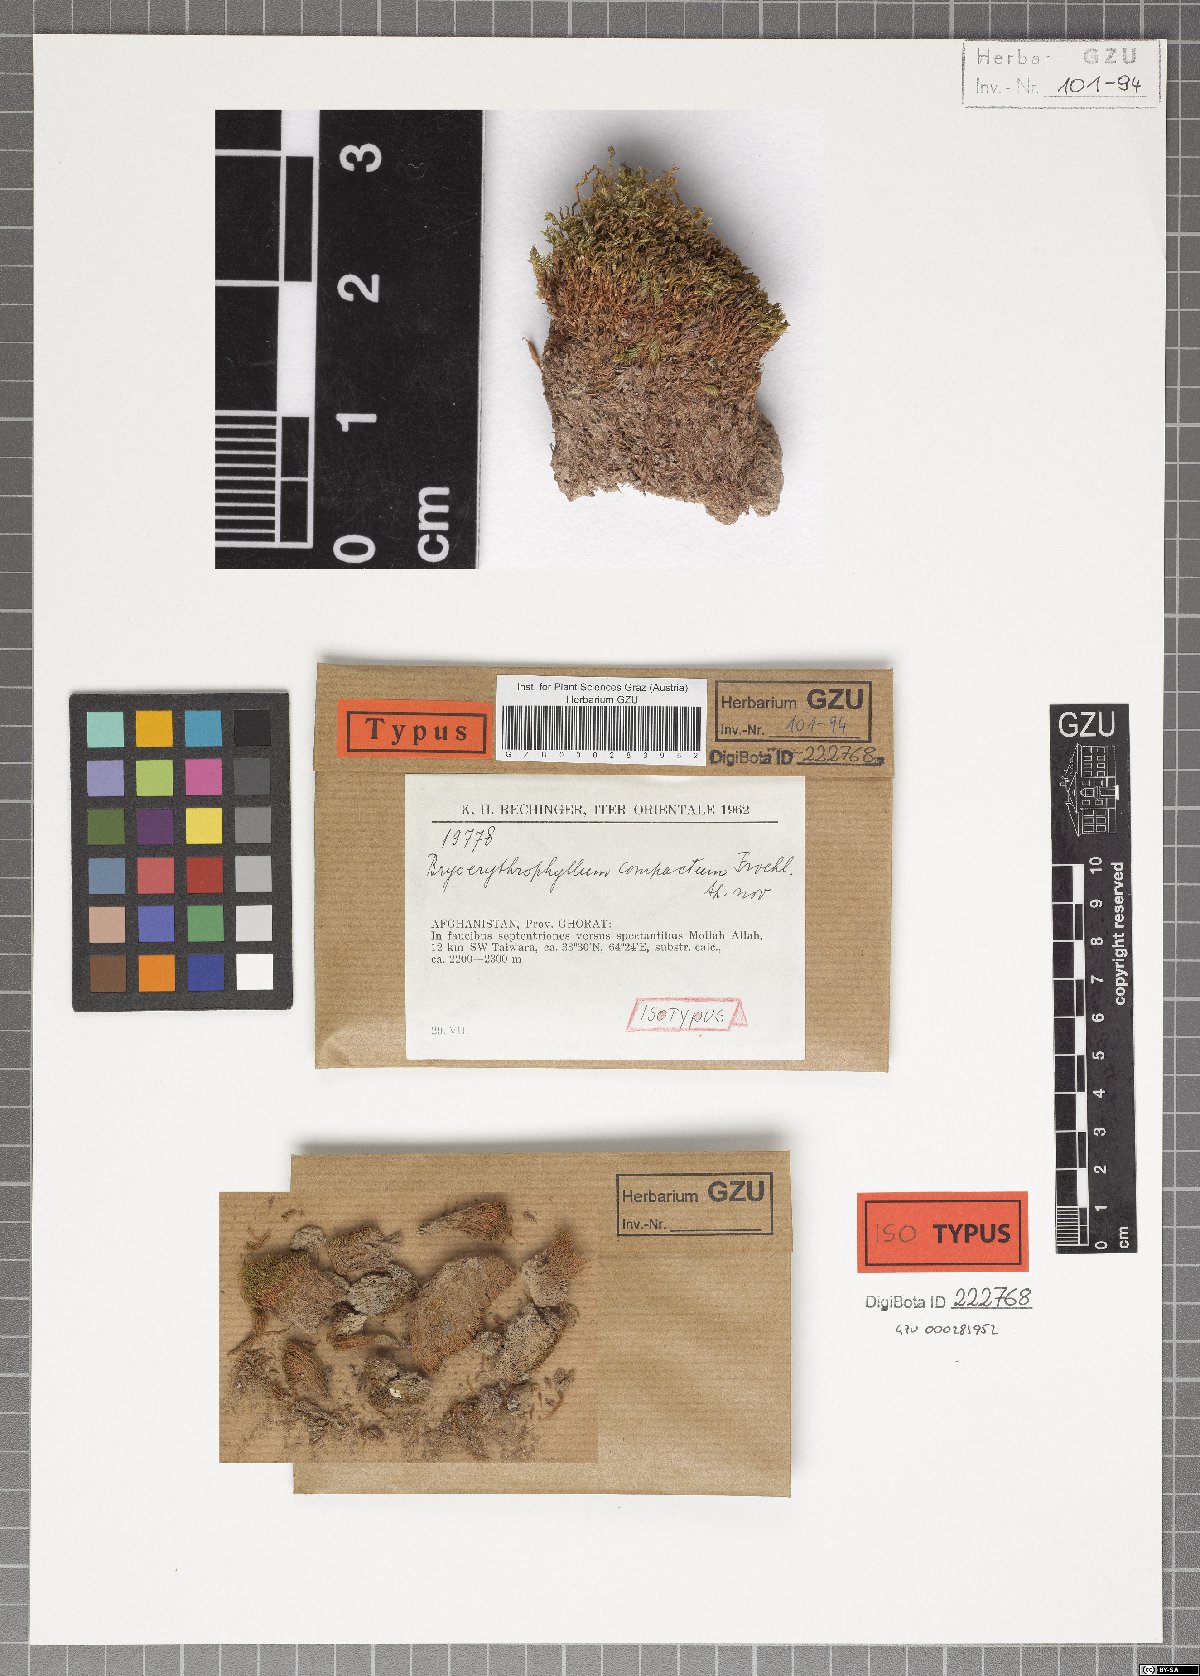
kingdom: Plantae
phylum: Bryophyta
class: Bryopsida
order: Pottiales
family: Pottiaceae
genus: Bryoerythrophyllum
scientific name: Bryoerythrophyllum rubrum
